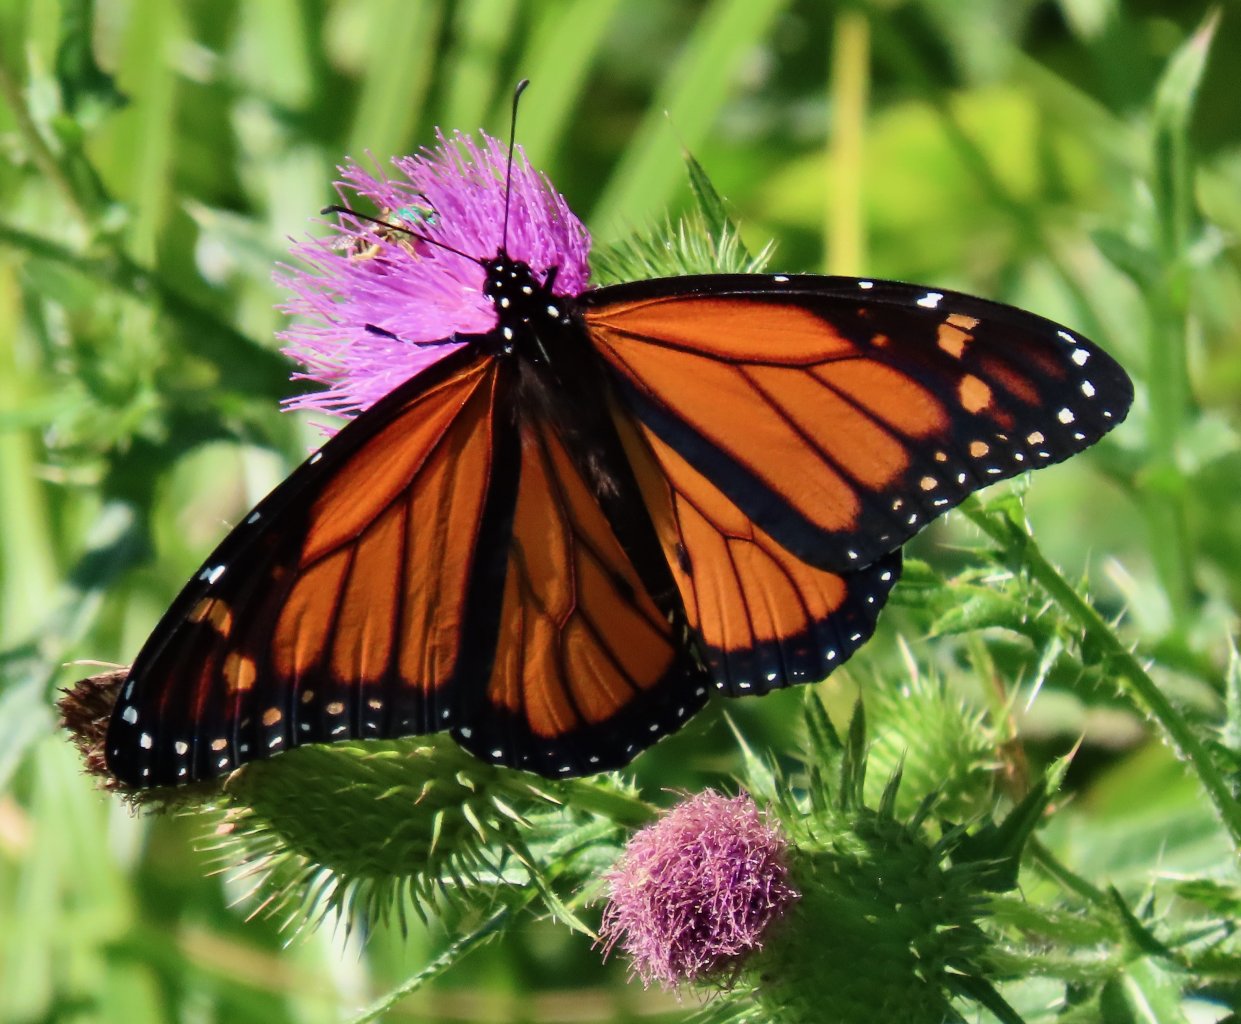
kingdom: Animalia
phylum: Arthropoda
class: Insecta
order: Lepidoptera
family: Nymphalidae
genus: Danaus
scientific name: Danaus plexippus
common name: Monarch
